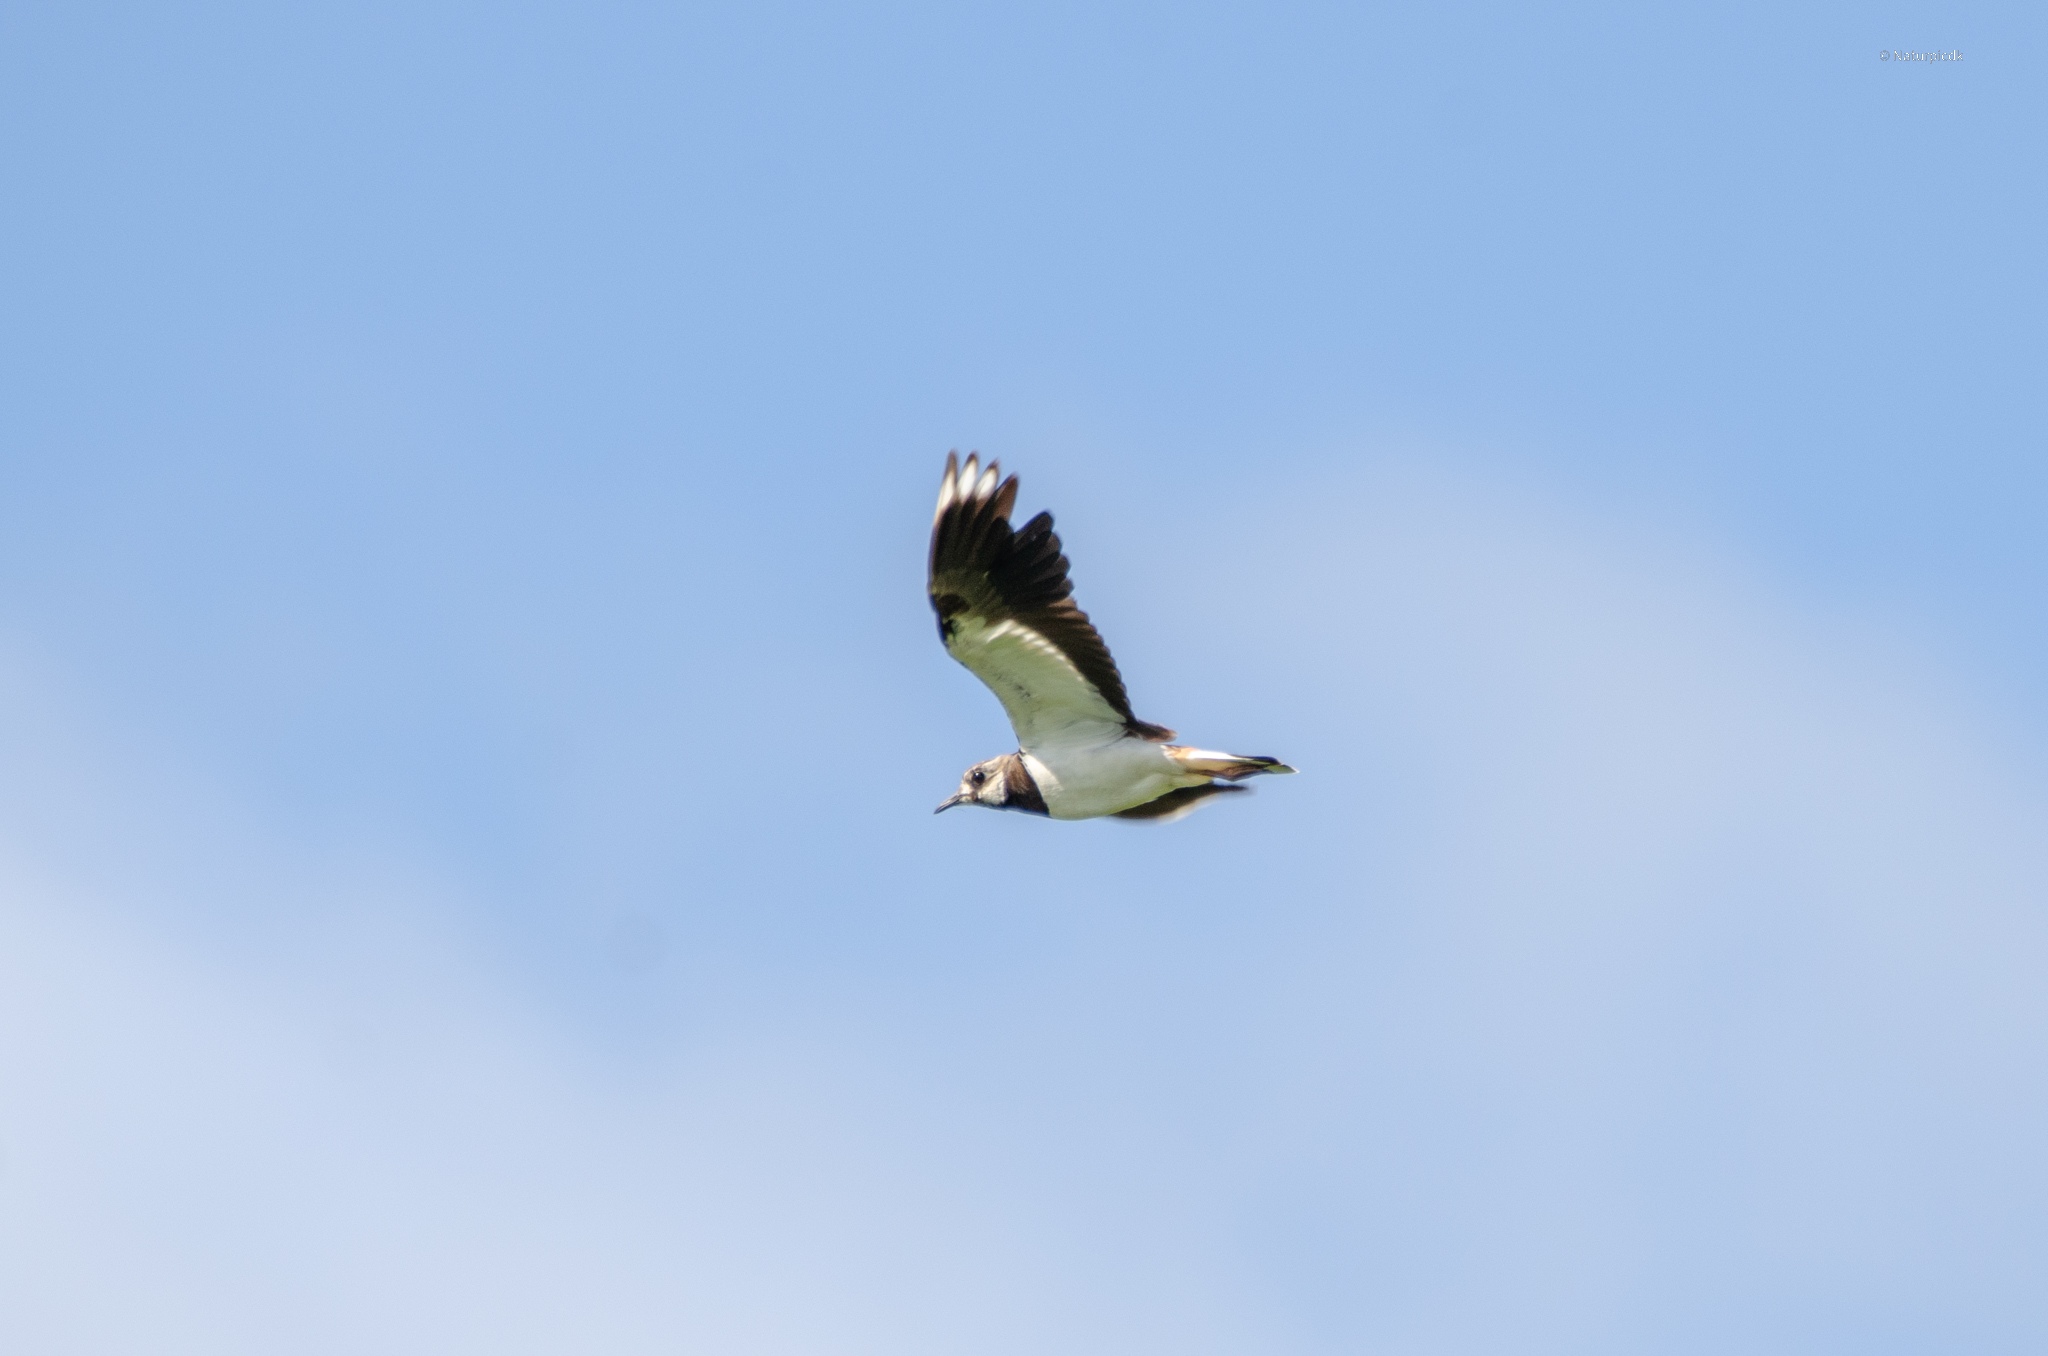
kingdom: Animalia
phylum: Chordata
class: Aves
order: Charadriiformes
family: Charadriidae
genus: Vanellus
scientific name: Vanellus vanellus
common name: Vibe
